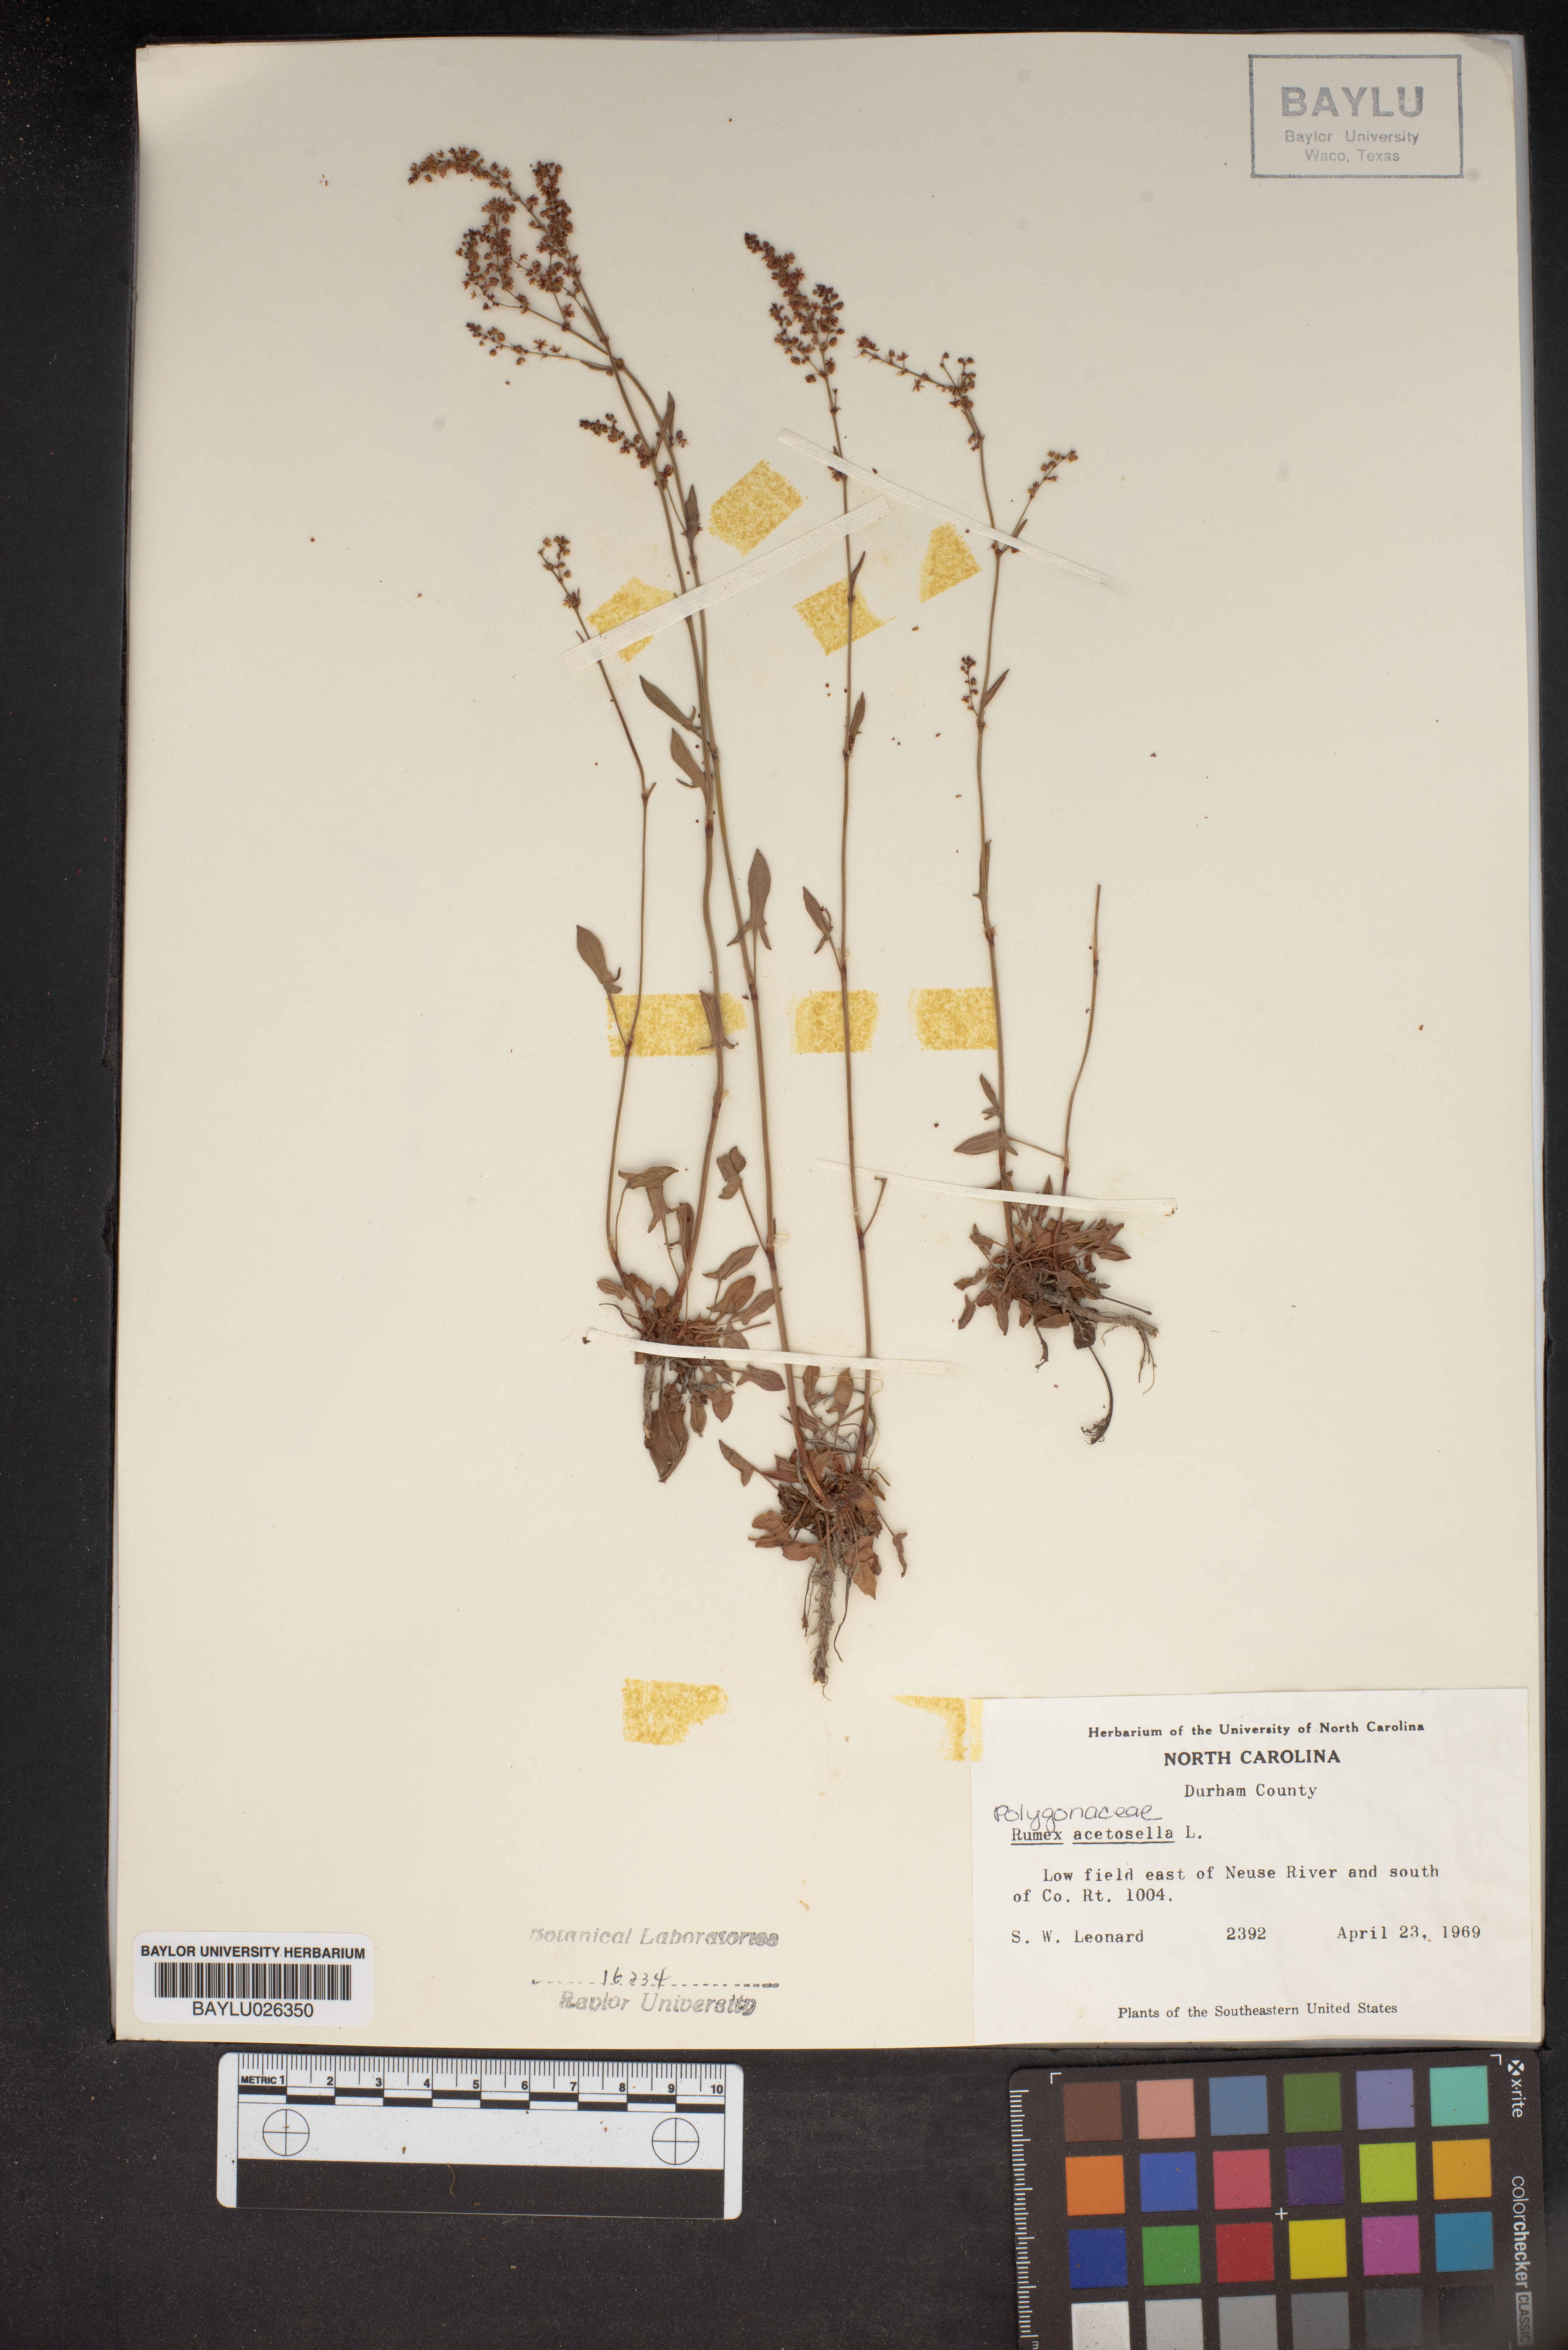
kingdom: Plantae
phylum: Tracheophyta
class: Magnoliopsida
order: Caryophyllales
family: Polygonaceae
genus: Rumex
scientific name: Rumex acetosella
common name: Common sheep sorrel
